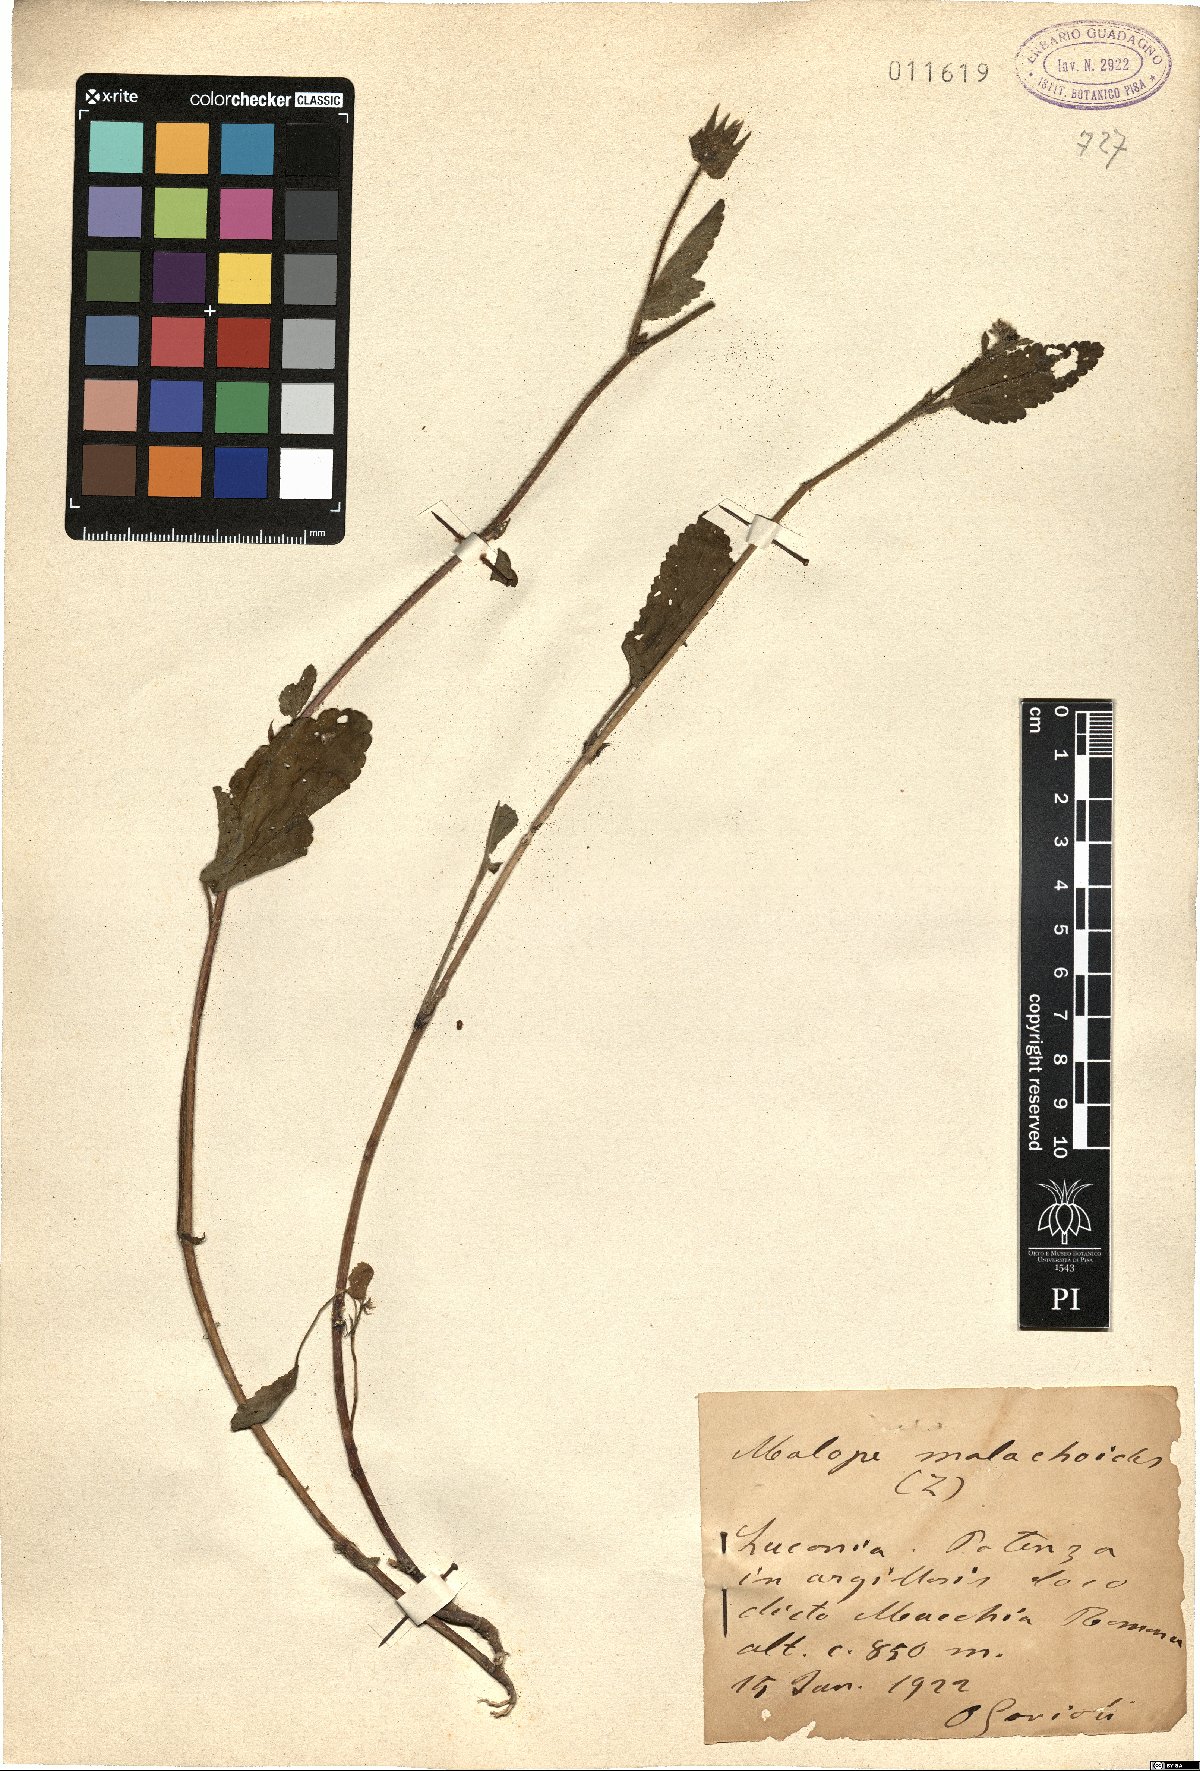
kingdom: Plantae
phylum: Tracheophyta
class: Magnoliopsida
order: Malvales
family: Malvaceae
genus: Malope
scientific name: Malope malacoides
